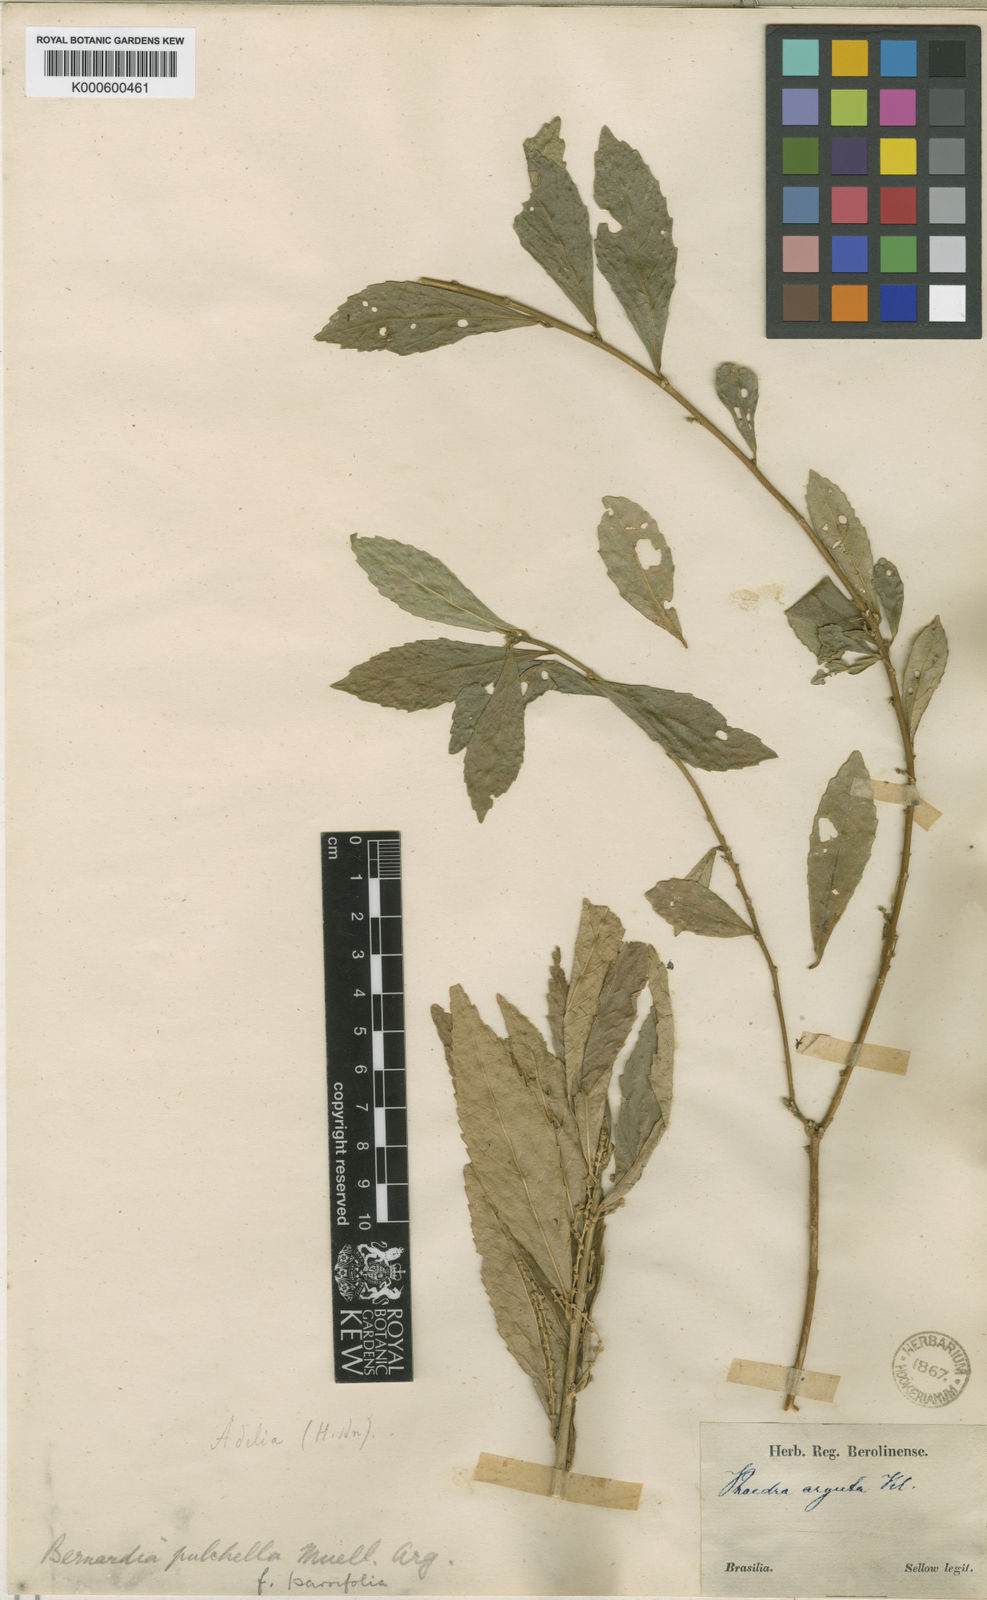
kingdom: Plantae
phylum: Tracheophyta
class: Magnoliopsida
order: Malpighiales
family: Euphorbiaceae
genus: Bernardia
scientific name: Bernardia
